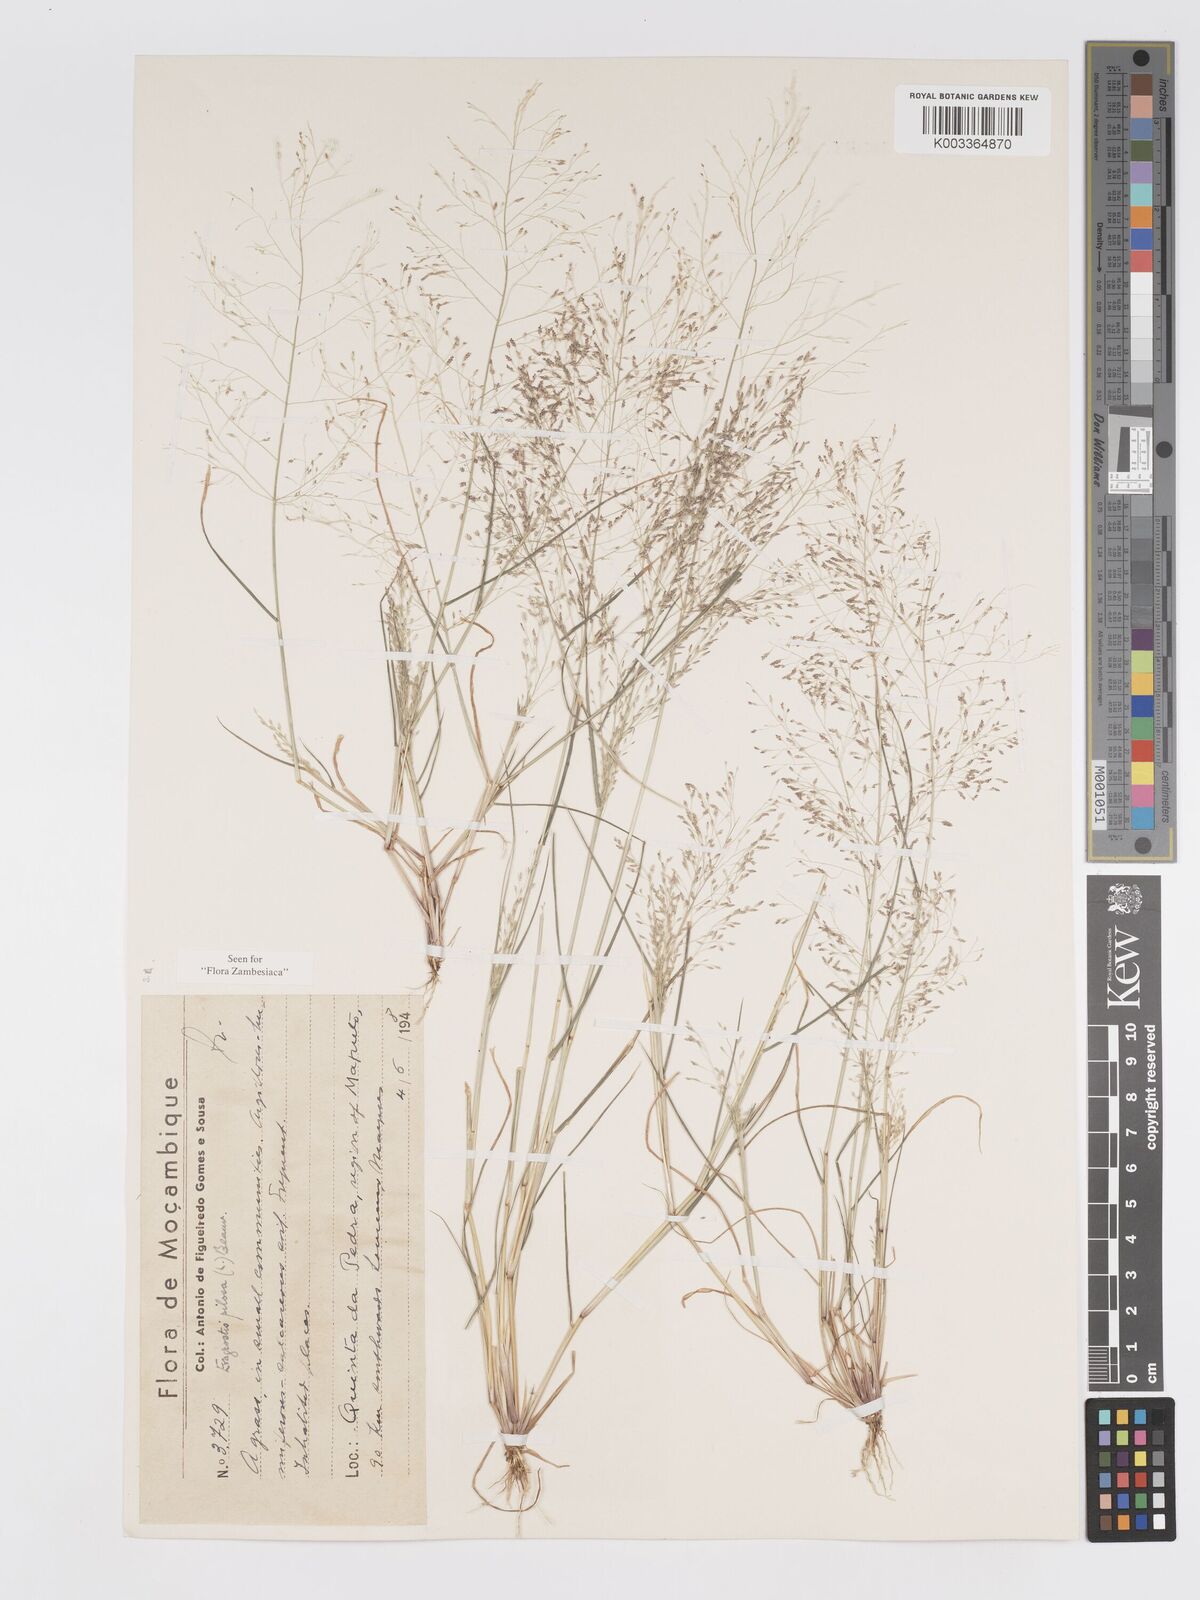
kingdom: Plantae
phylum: Tracheophyta
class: Liliopsida
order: Poales
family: Poaceae
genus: Eragrostis
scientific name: Eragrostis pilosa
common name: Indian lovegrass
